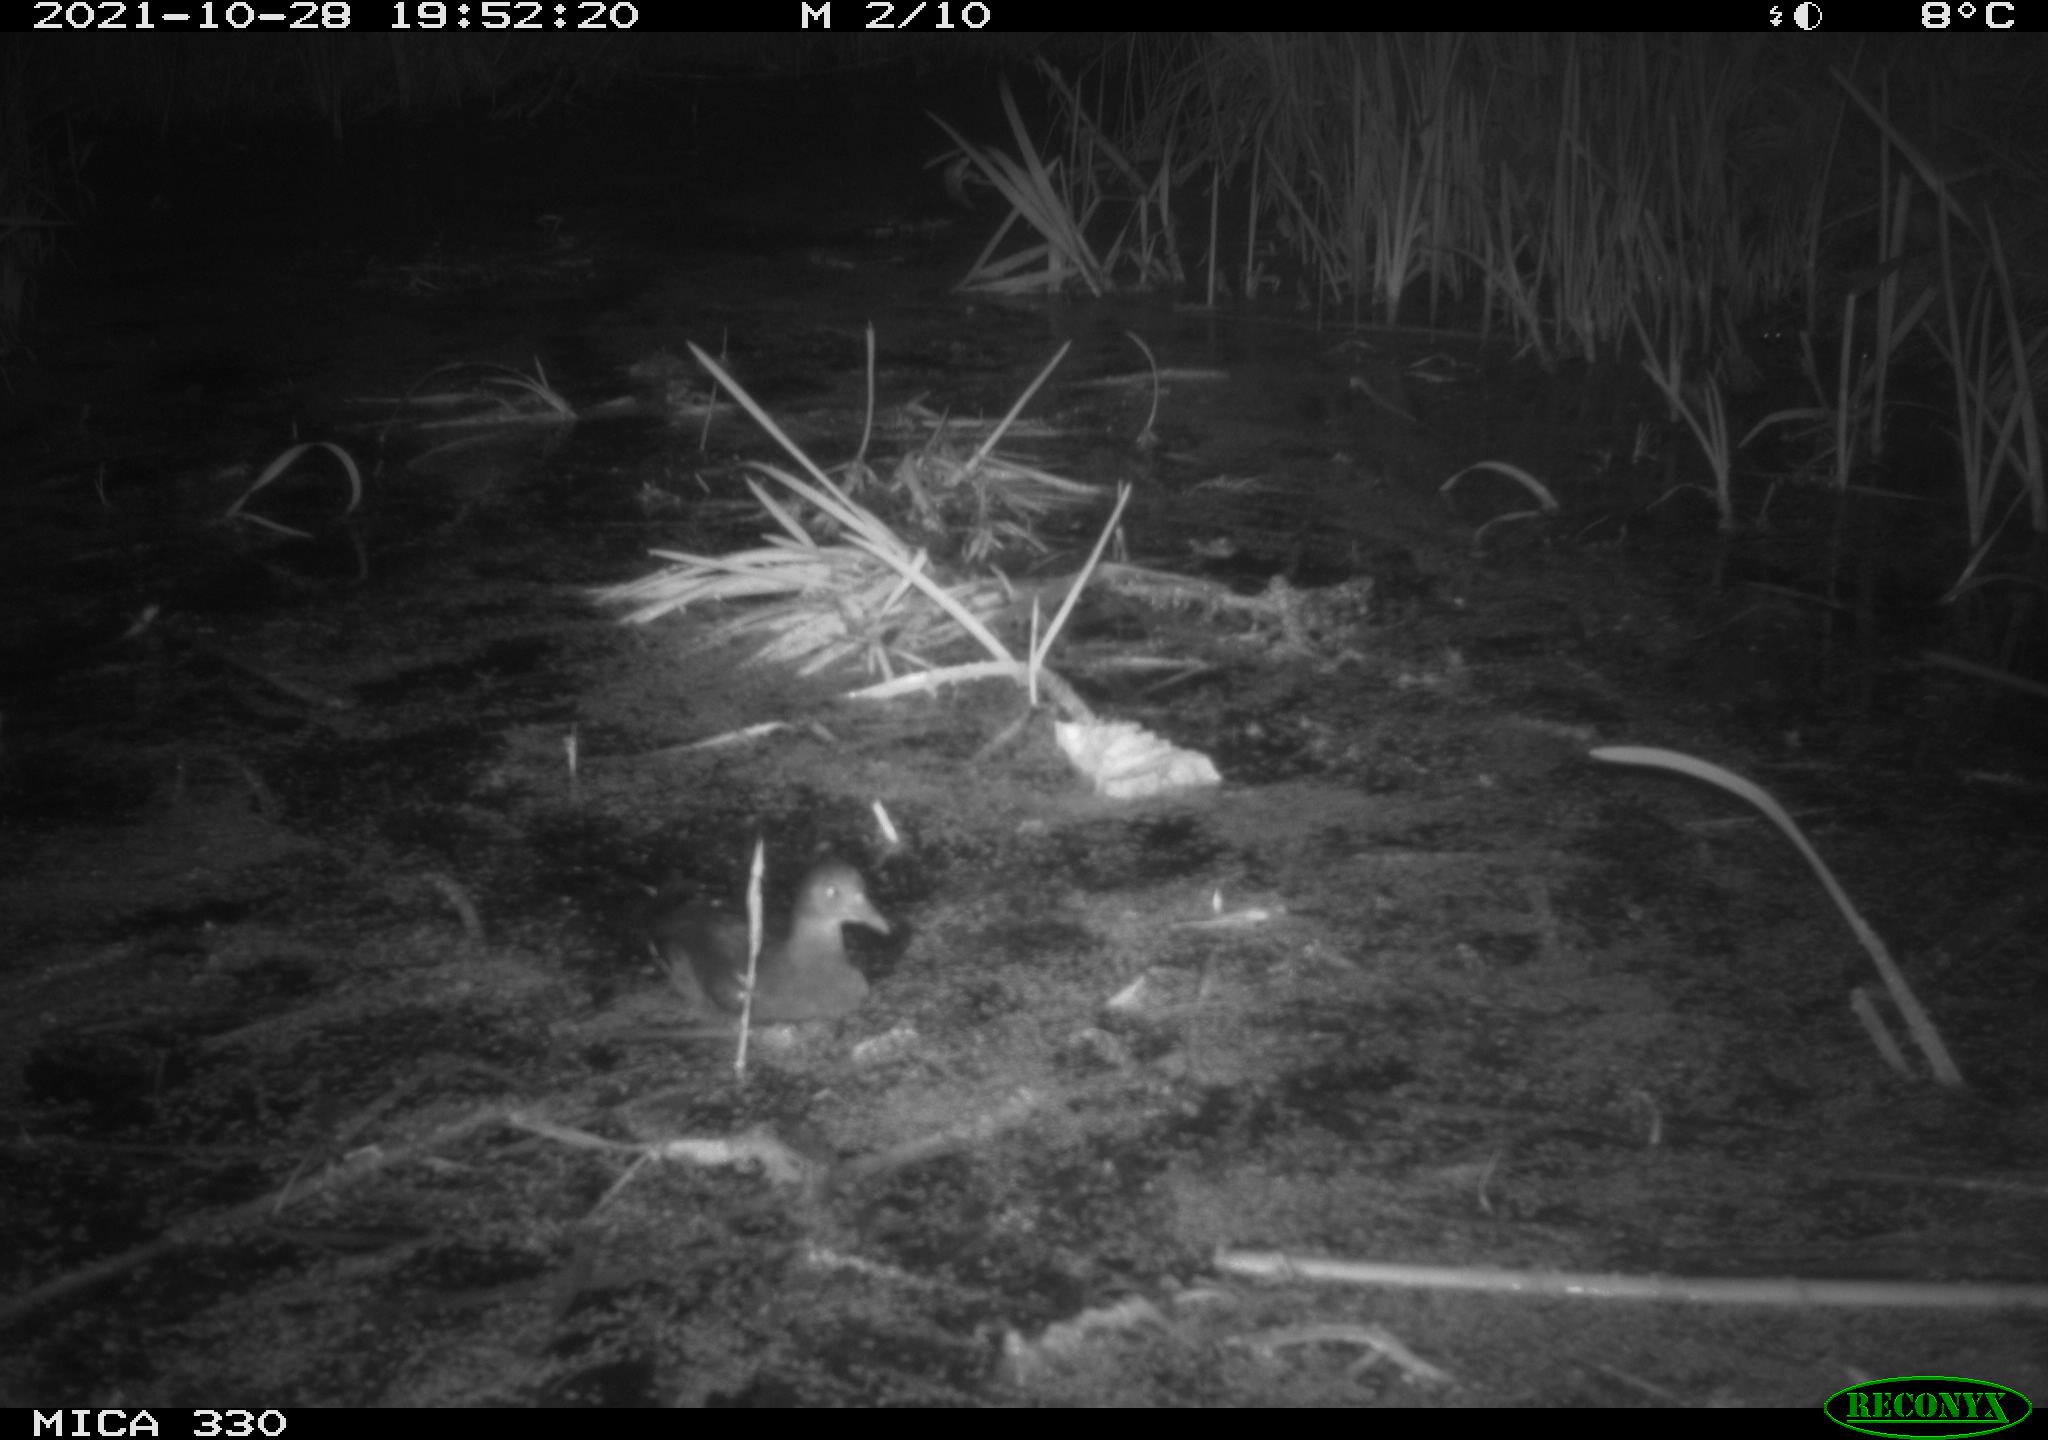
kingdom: Animalia
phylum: Chordata
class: Aves
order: Gruiformes
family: Rallidae
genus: Gallinula
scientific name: Gallinula chloropus
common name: Common moorhen
